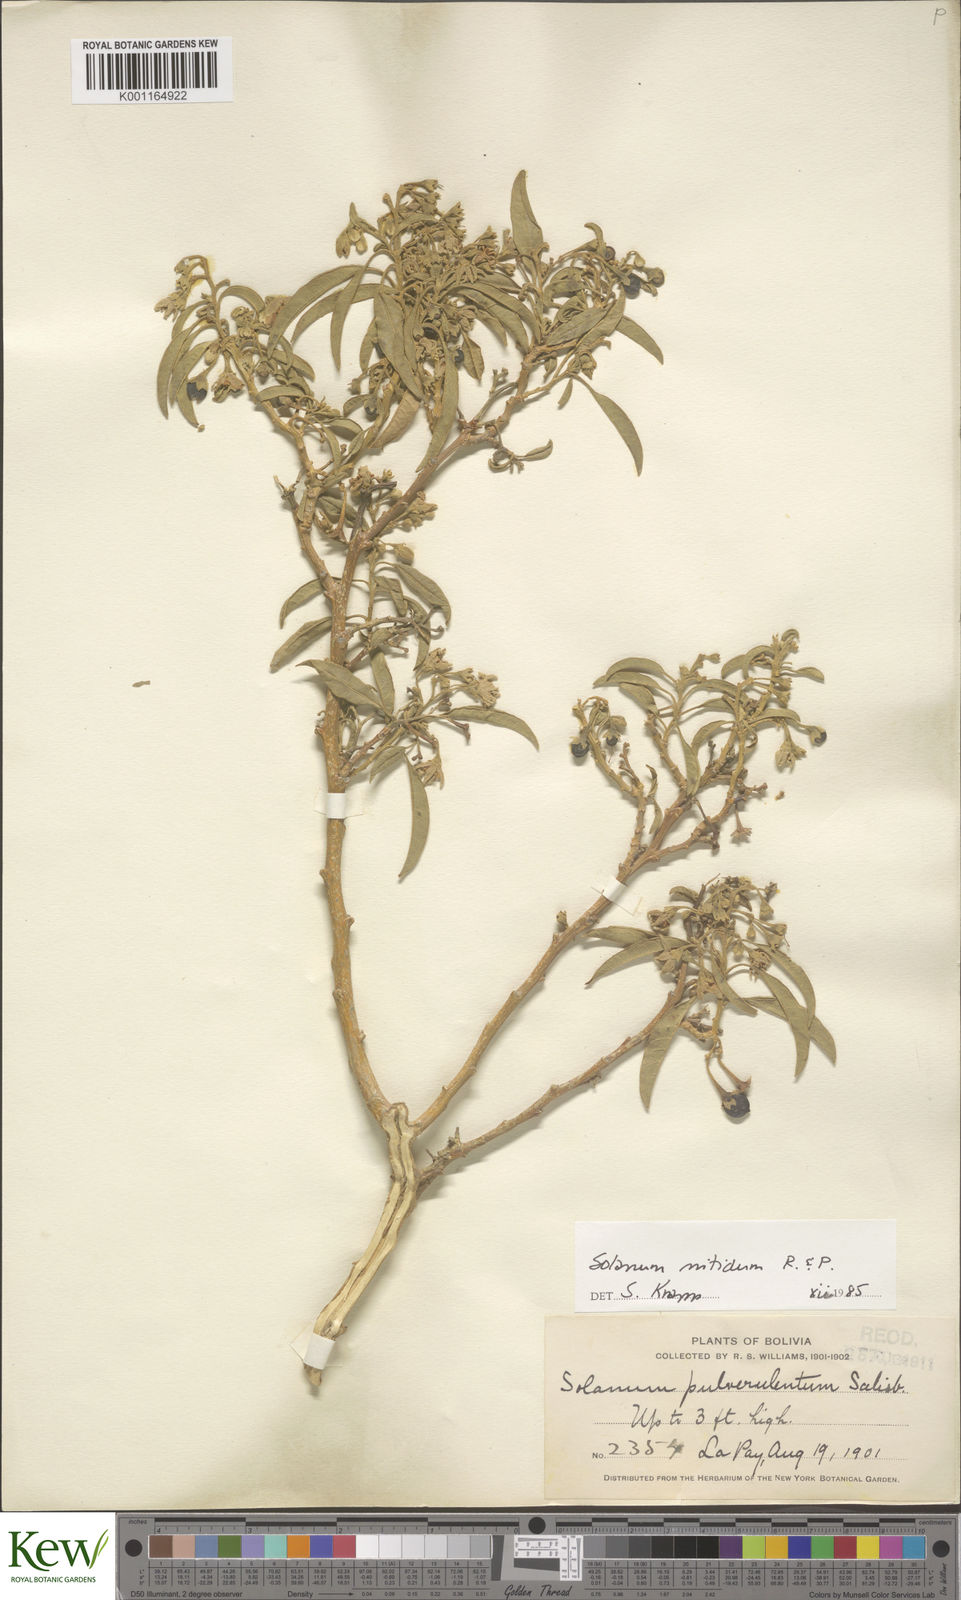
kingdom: Plantae
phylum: Tracheophyta
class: Magnoliopsida
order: Solanales
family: Solanaceae
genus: Solanum
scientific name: Solanum nitidum
